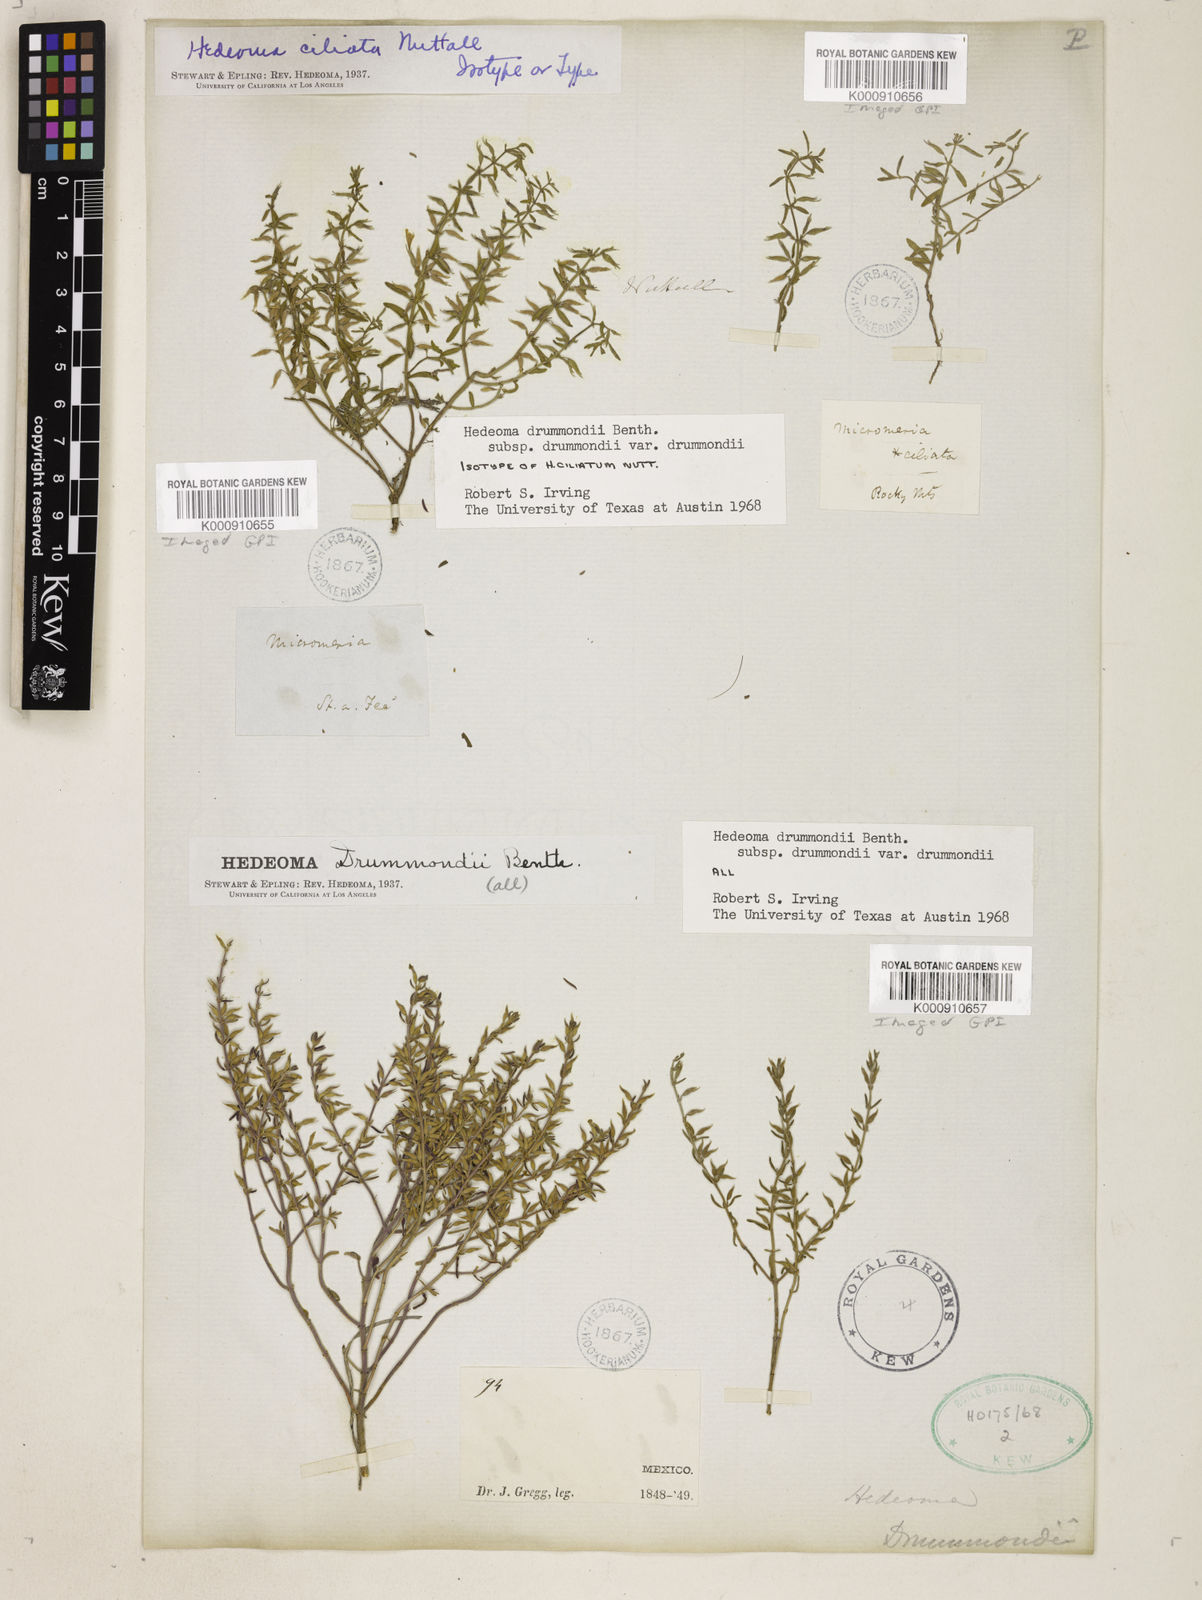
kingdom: Plantae
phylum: Tracheophyta
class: Magnoliopsida
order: Lamiales
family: Lamiaceae
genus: Hedeoma
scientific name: Hedeoma drummondii
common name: New mexico pennyroyal
